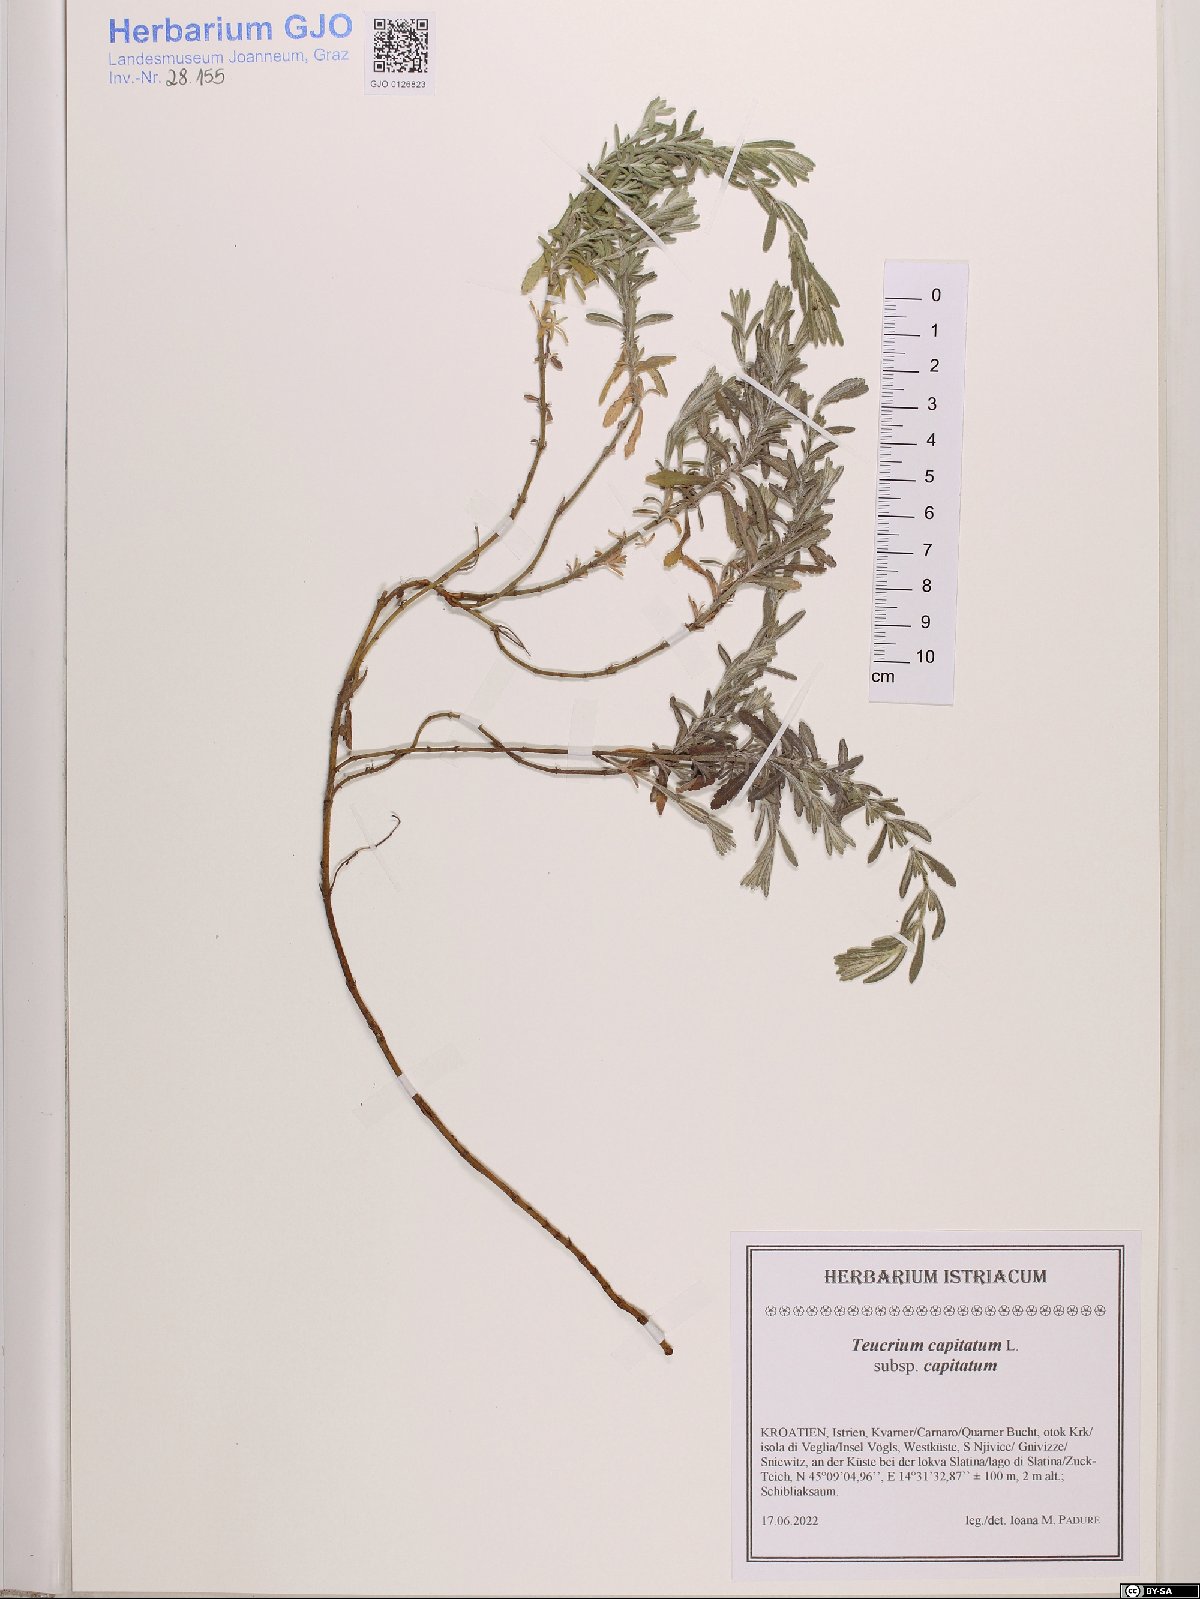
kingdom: Plantae
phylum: Tracheophyta
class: Magnoliopsida
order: Lamiales
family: Lamiaceae
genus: Teucrium
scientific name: Teucrium capitatum
